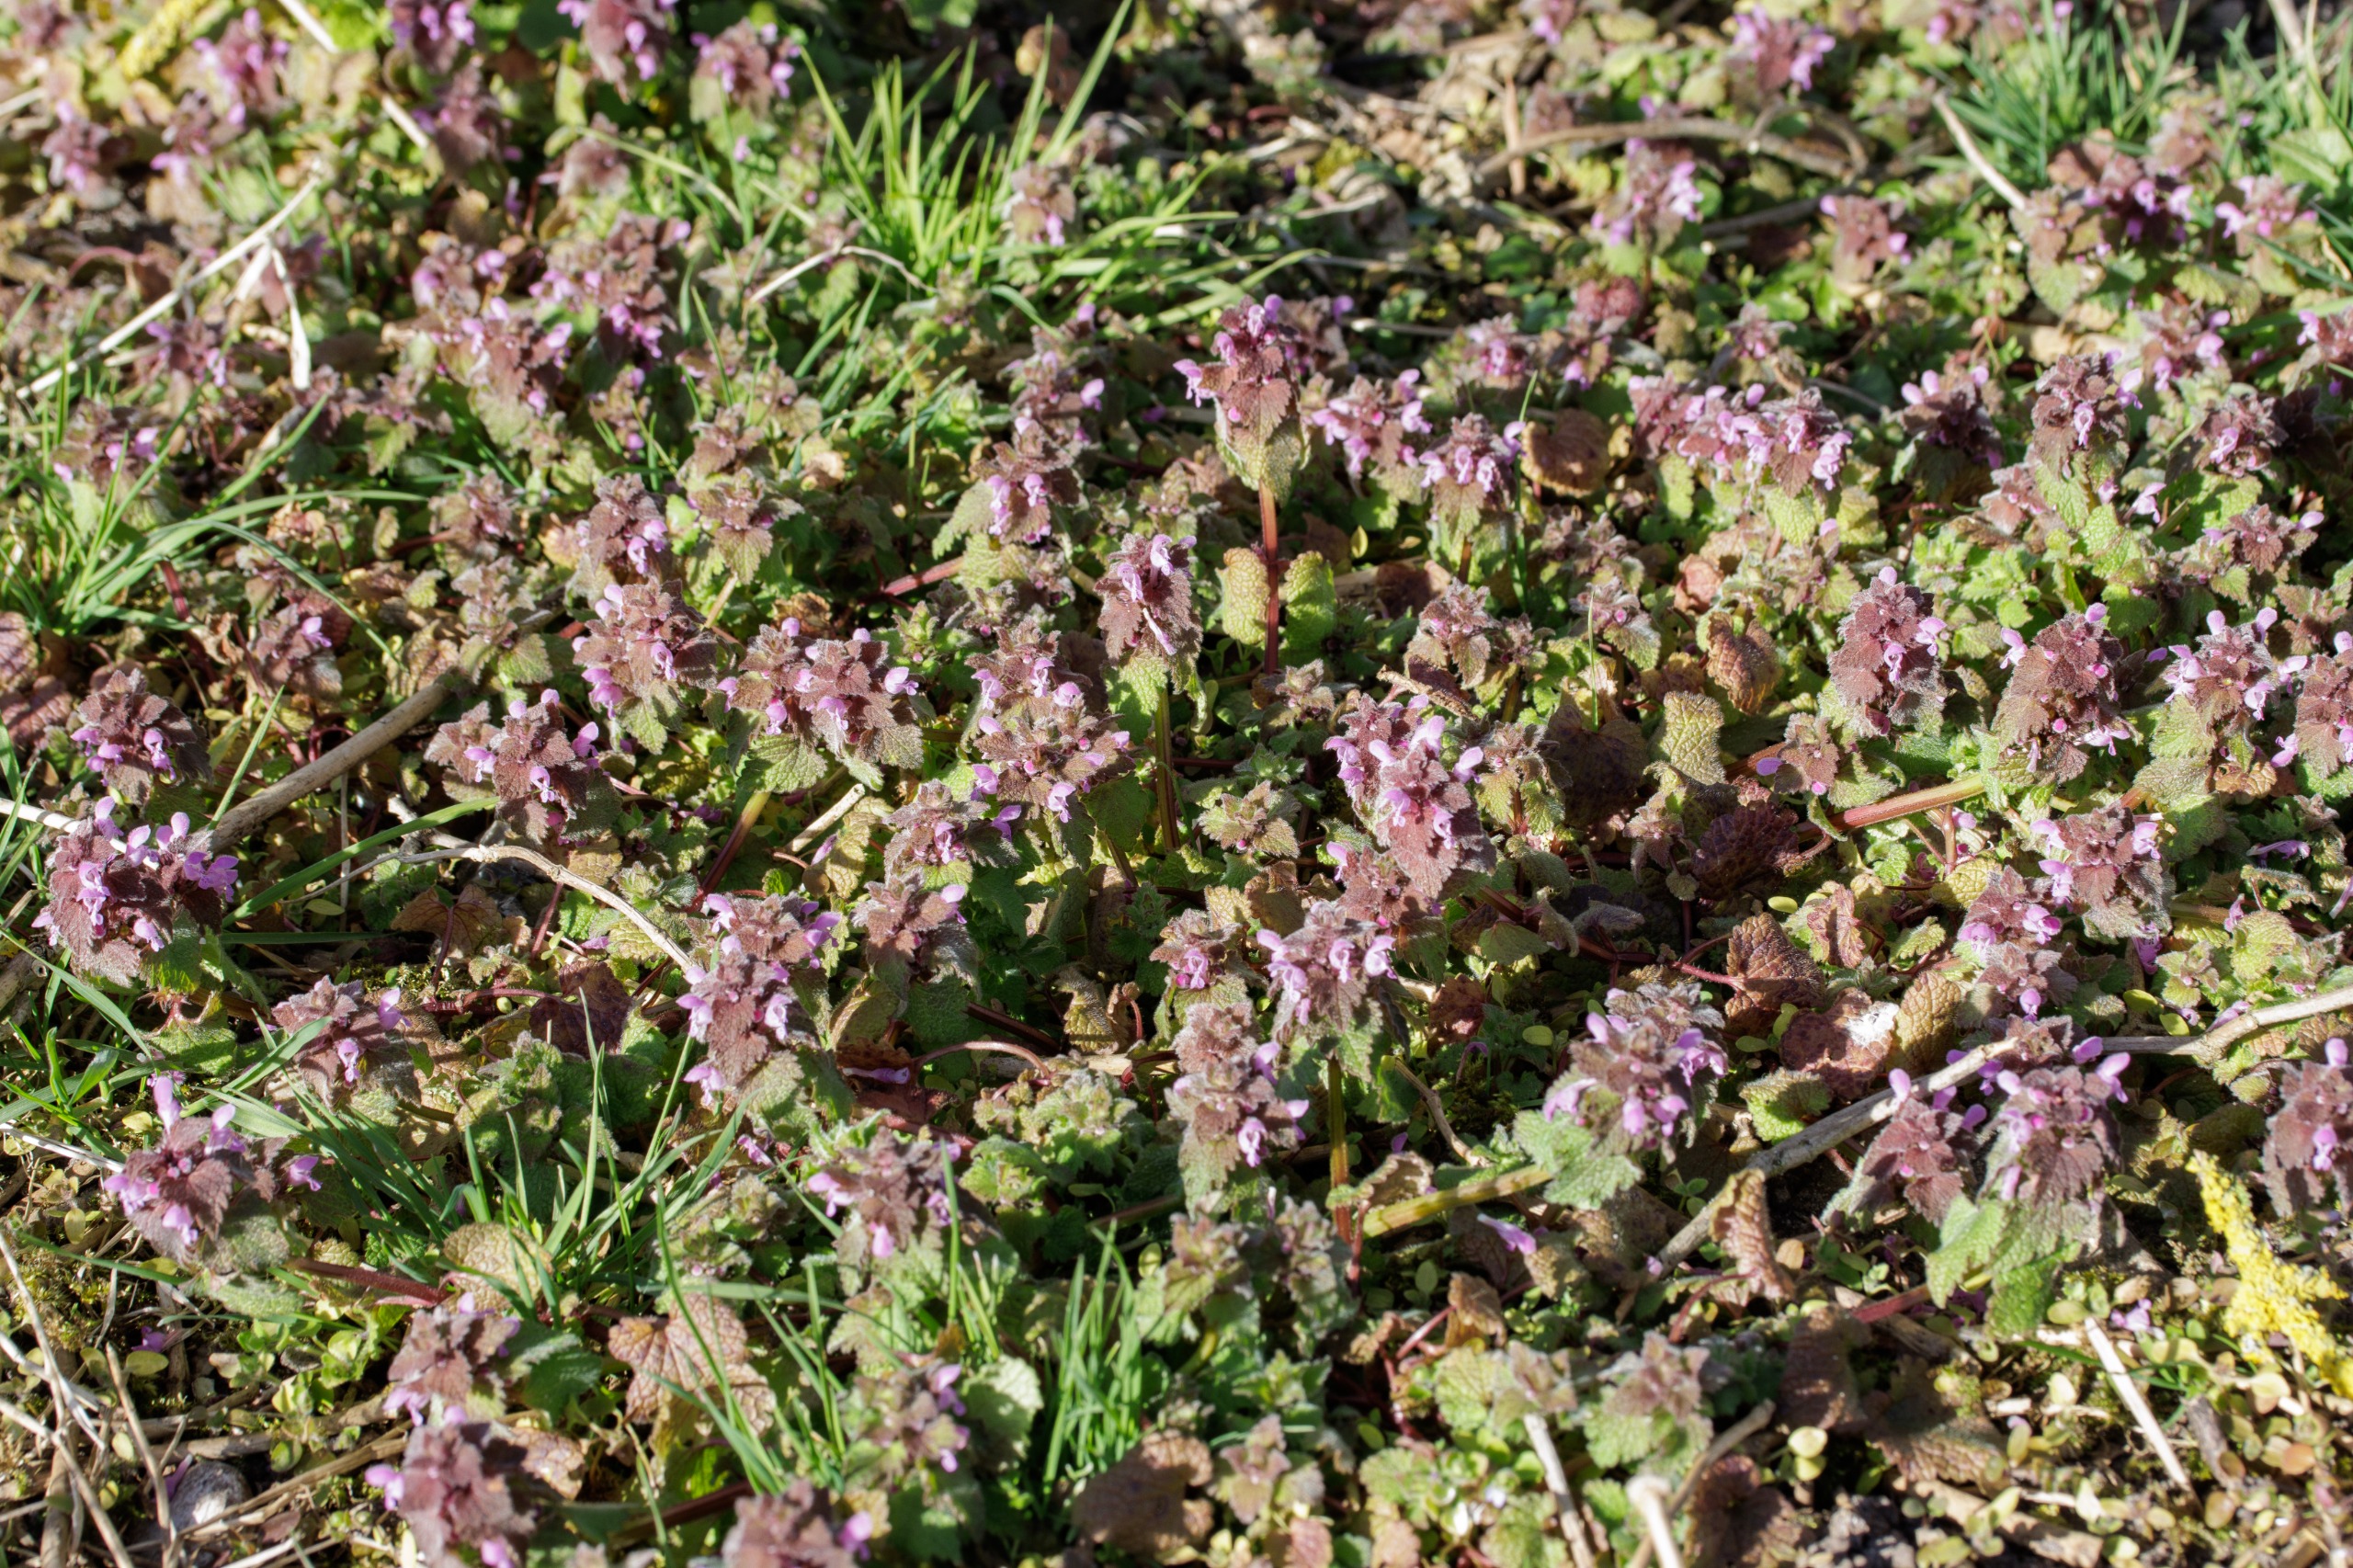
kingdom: Plantae
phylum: Tracheophyta
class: Magnoliopsida
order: Lamiales
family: Lamiaceae
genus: Lamium
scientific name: Lamium purpureum
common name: Rød tvetand
